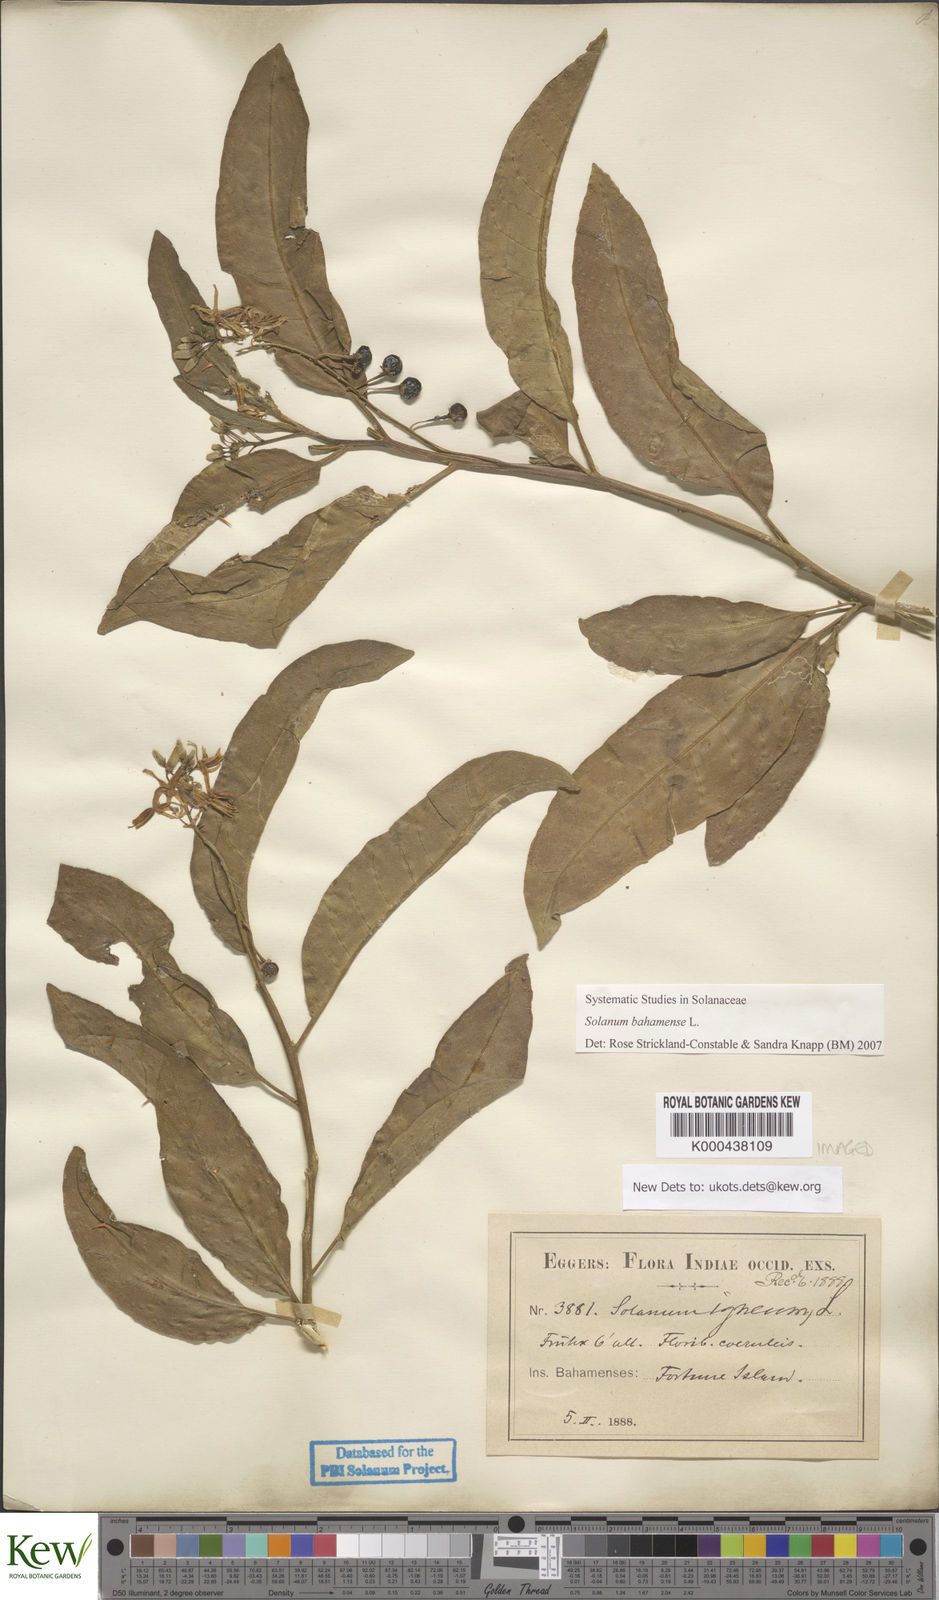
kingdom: Plantae
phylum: Tracheophyta
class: Magnoliopsida
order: Solanales
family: Solanaceae
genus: Solanum
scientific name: Solanum bahamense
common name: Canker-berry
